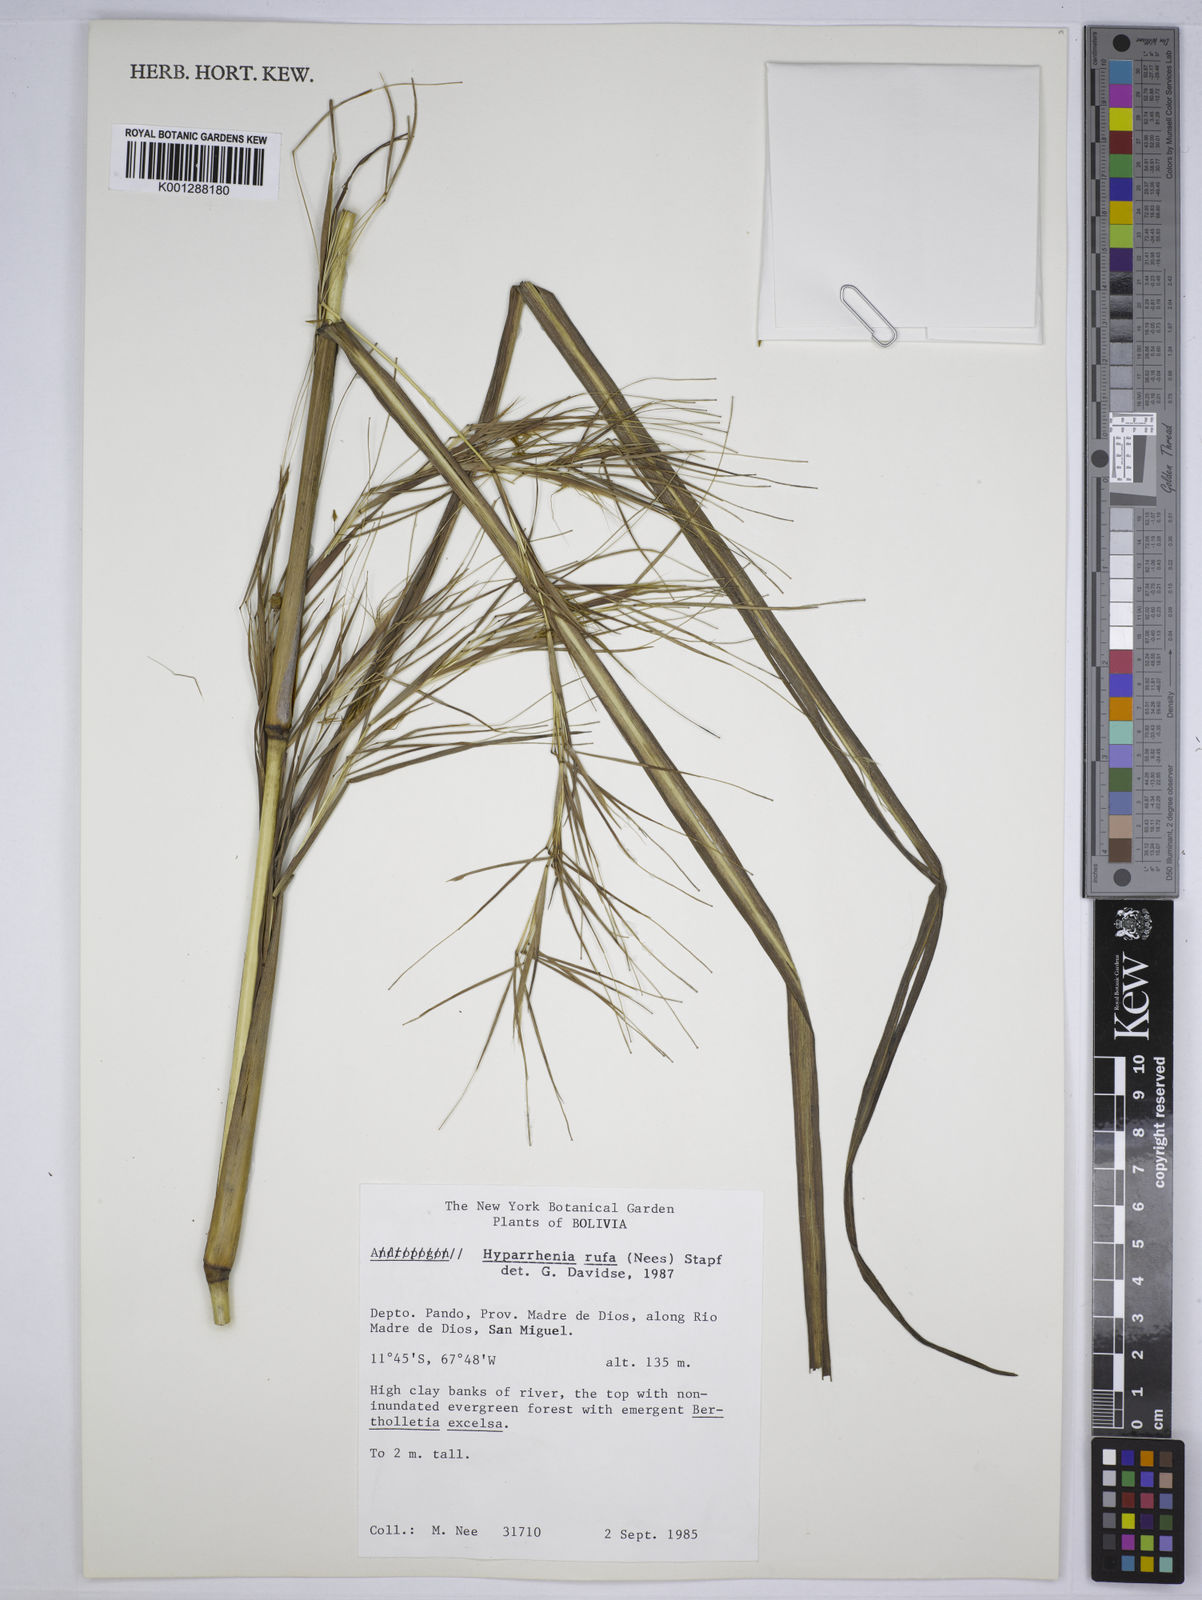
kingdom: Plantae
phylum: Tracheophyta
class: Liliopsida
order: Poales
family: Poaceae
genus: Hyparrhenia
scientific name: Hyparrhenia rufa
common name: Jaraguagrass
